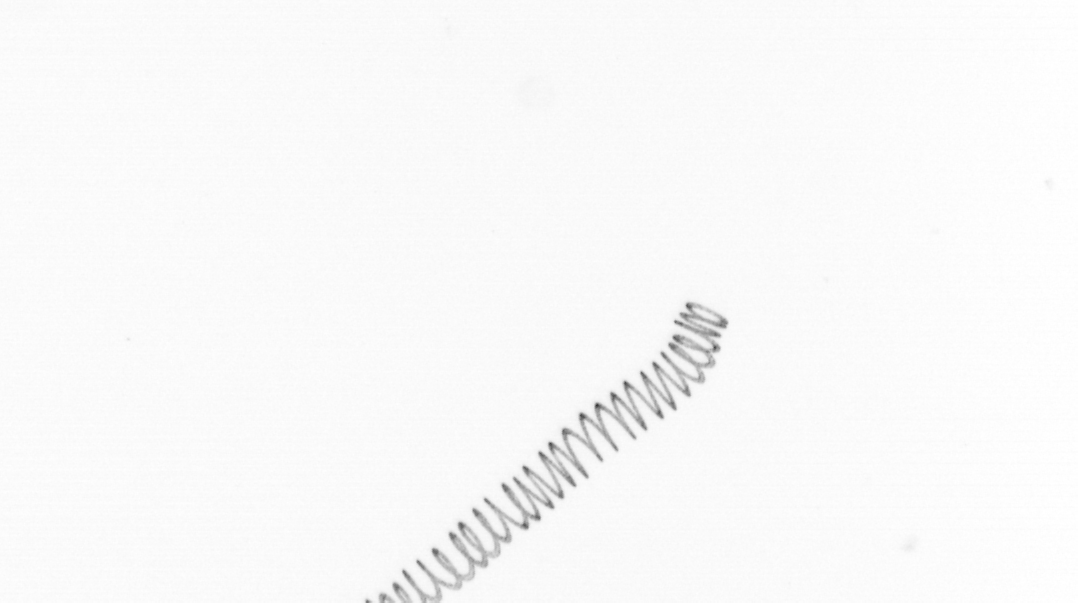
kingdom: Chromista
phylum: Ochrophyta
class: Bacillariophyceae
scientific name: Bacillariophyceae
